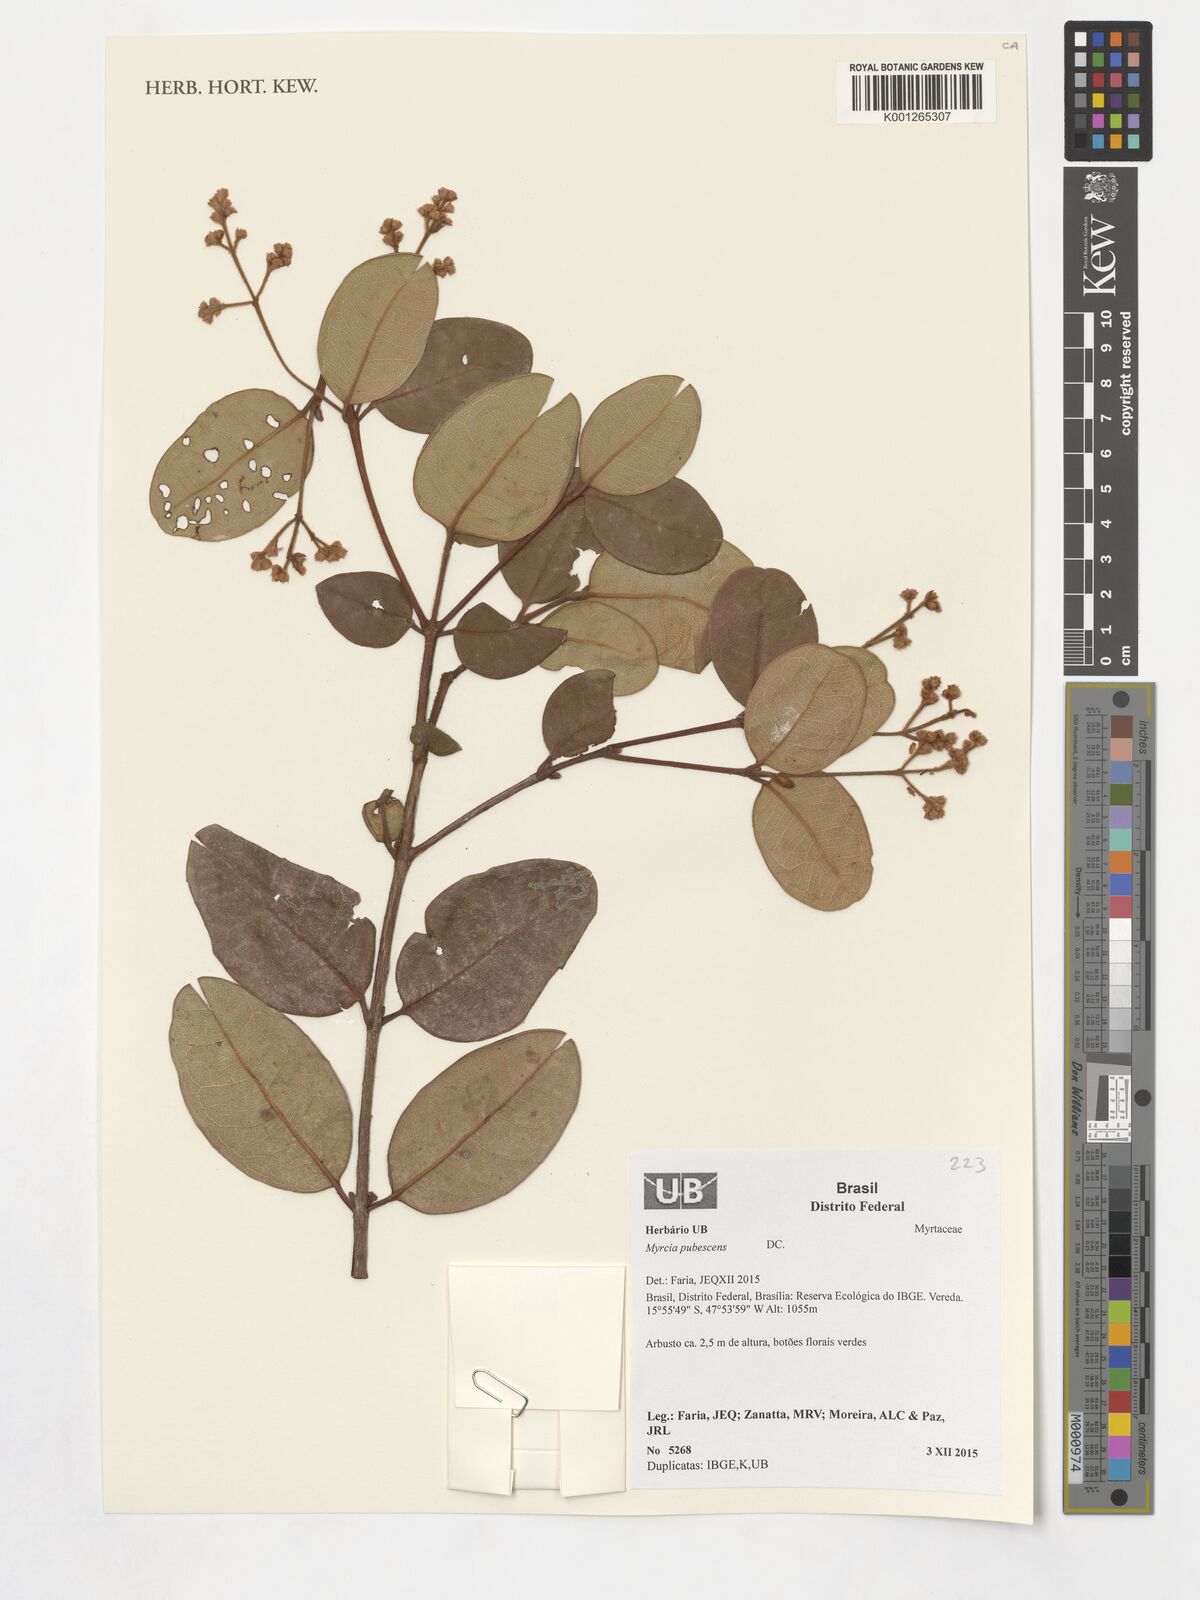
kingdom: Plantae
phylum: Tracheophyta
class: Magnoliopsida
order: Myrtales
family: Myrtaceae
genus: Myrcia
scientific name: Myrcia pubescens
